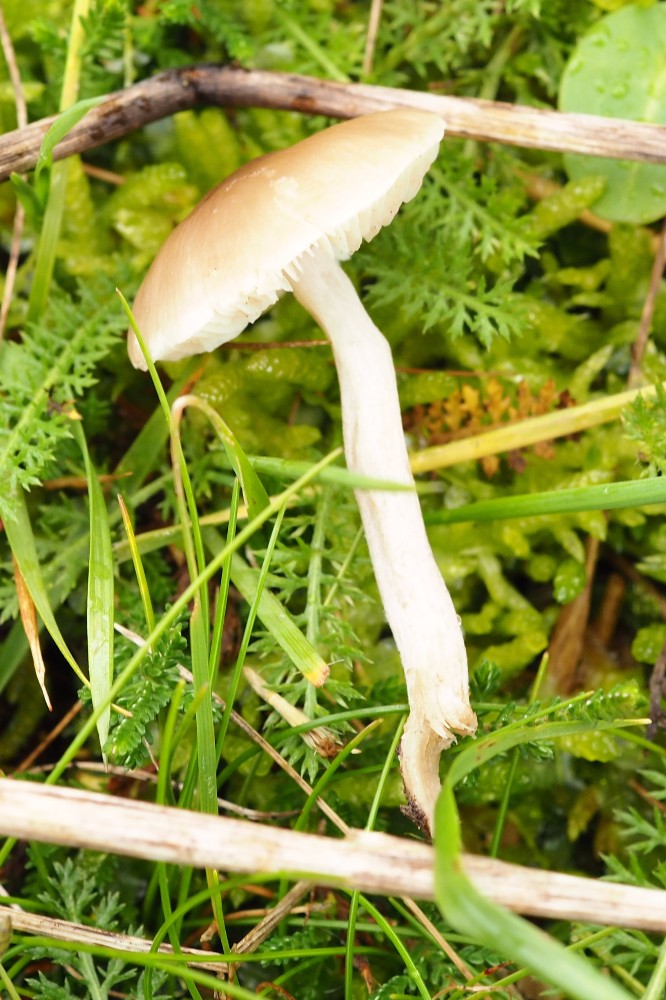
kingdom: Fungi
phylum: Basidiomycota
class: Agaricomycetes
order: Agaricales
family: Tricholomataceae
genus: Dermoloma
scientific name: Dermoloma cuneifolium
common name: eng-nonnehat
